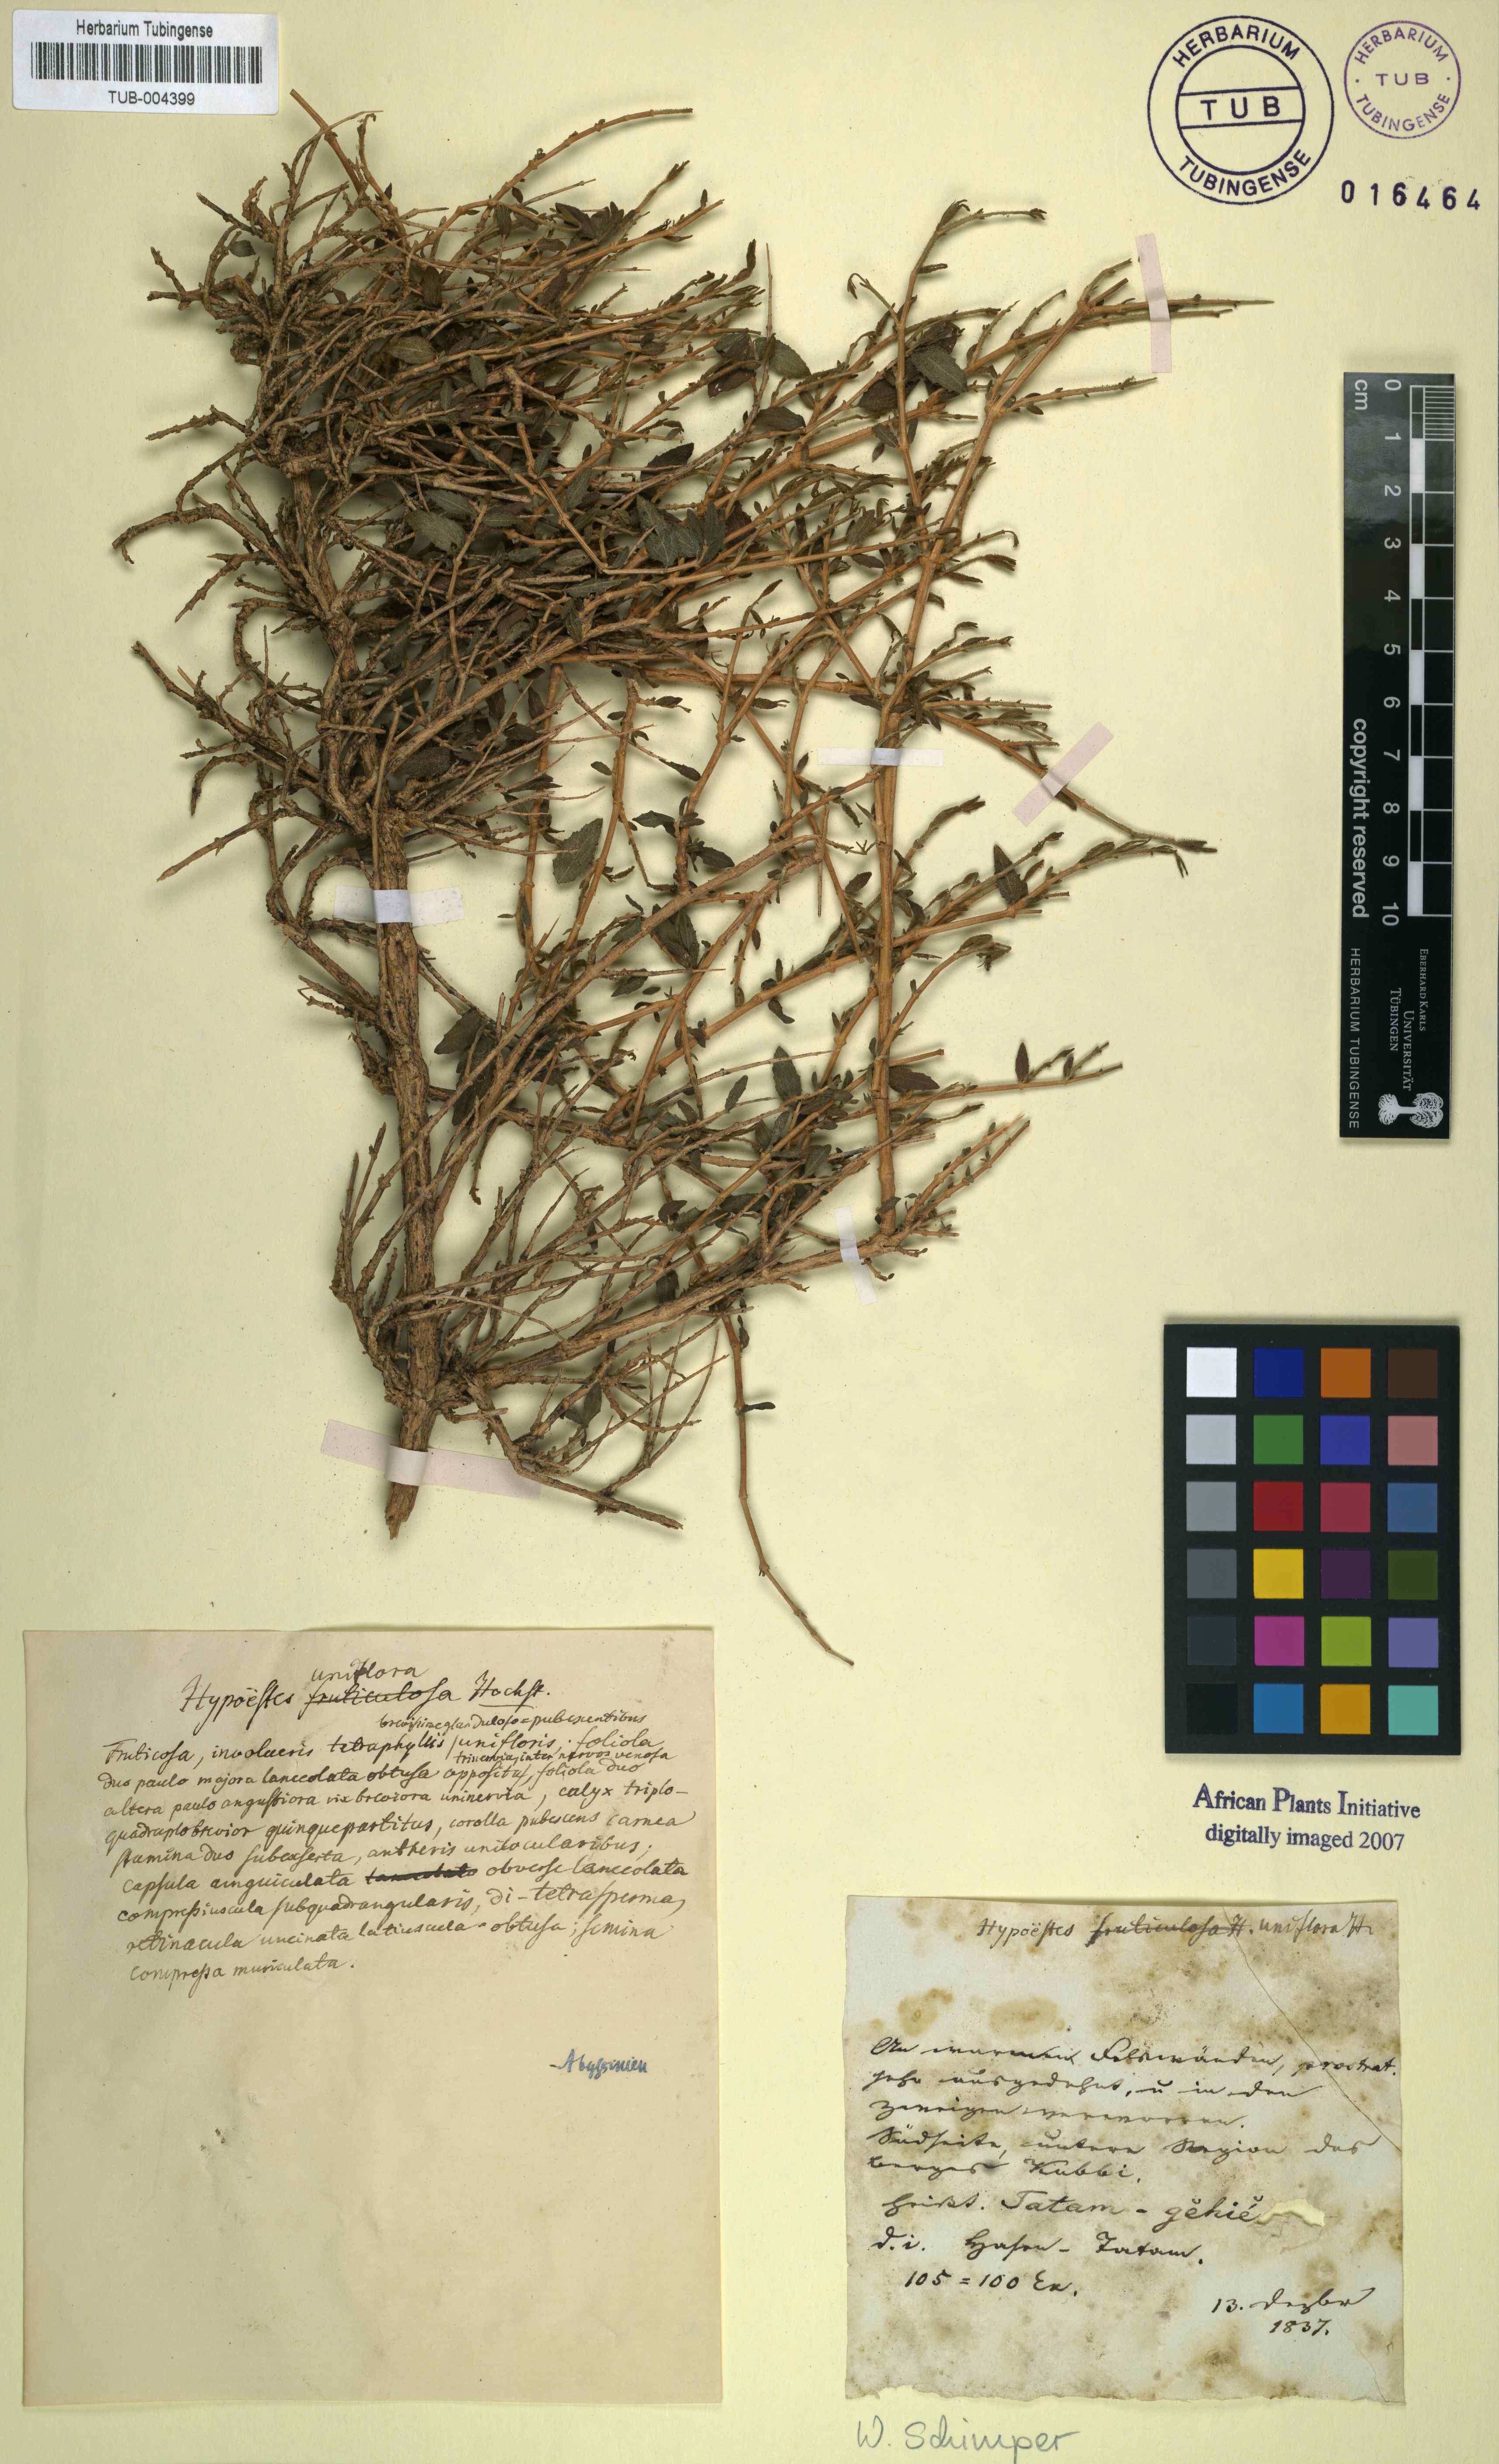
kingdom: Plantae
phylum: Tracheophyta
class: Magnoliopsida
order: Lamiales
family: Acanthaceae
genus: Hypoestes
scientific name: Hypoestes triflora
